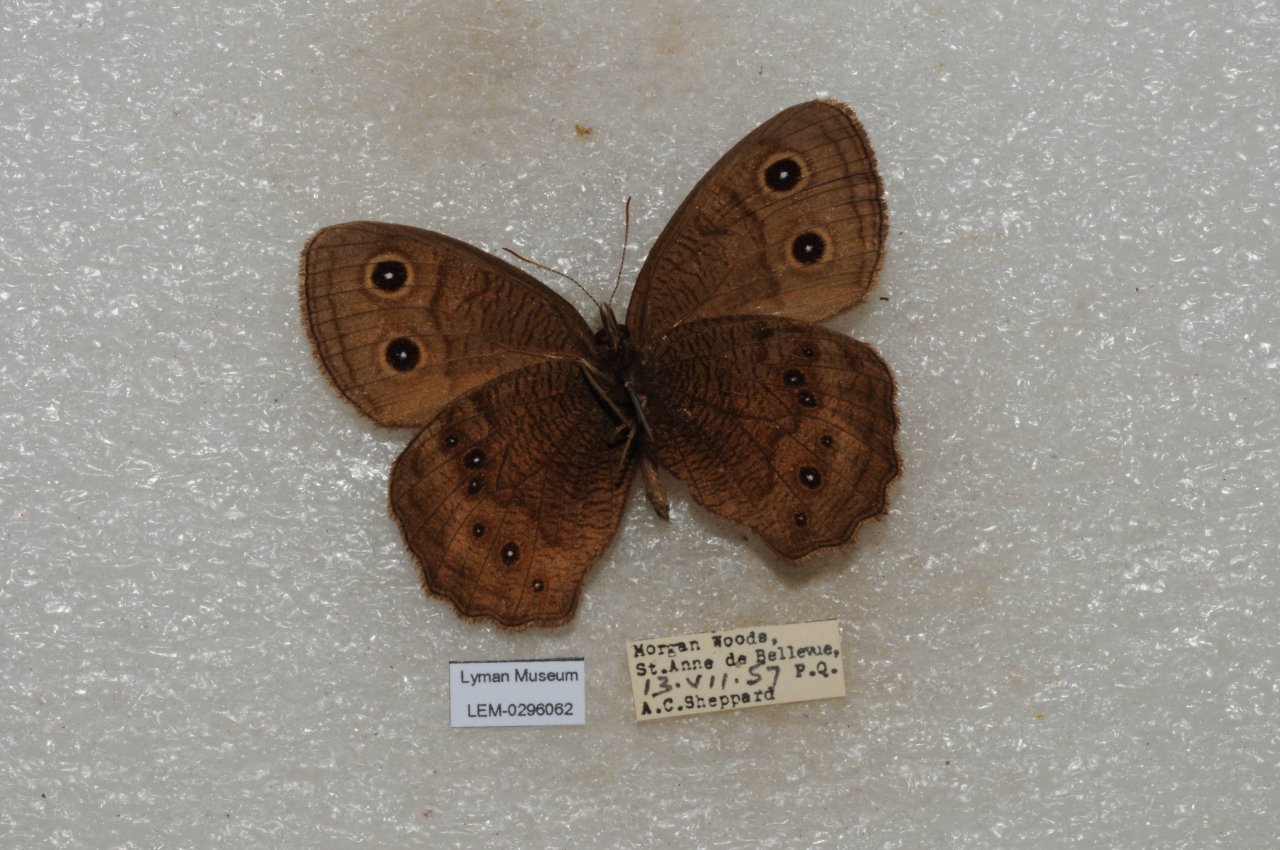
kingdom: Animalia
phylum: Arthropoda
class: Insecta
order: Lepidoptera
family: Nymphalidae
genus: Cercyonis
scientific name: Cercyonis pegala
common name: Common Wood-Nymph
